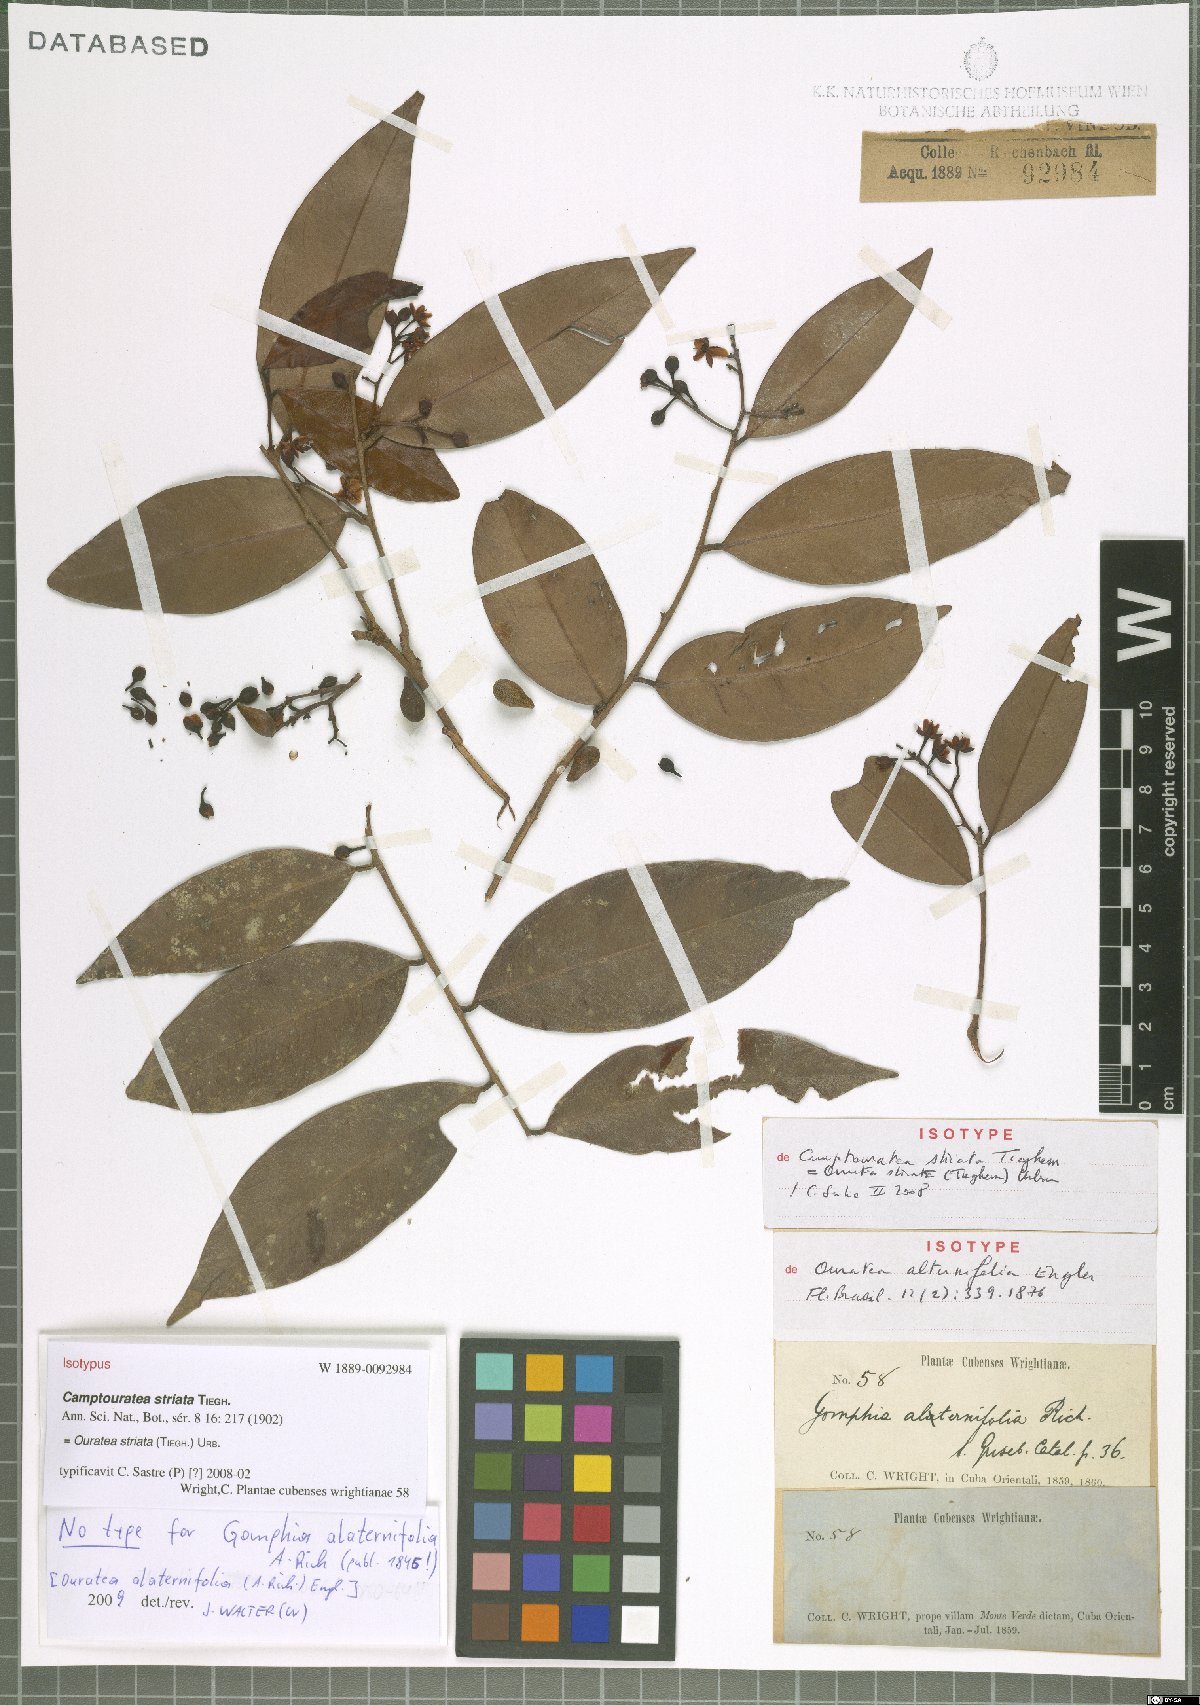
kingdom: Plantae
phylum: Tracheophyta
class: Magnoliopsida
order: Malpighiales
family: Ochnaceae
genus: Ouratea
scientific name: Ouratea striata
